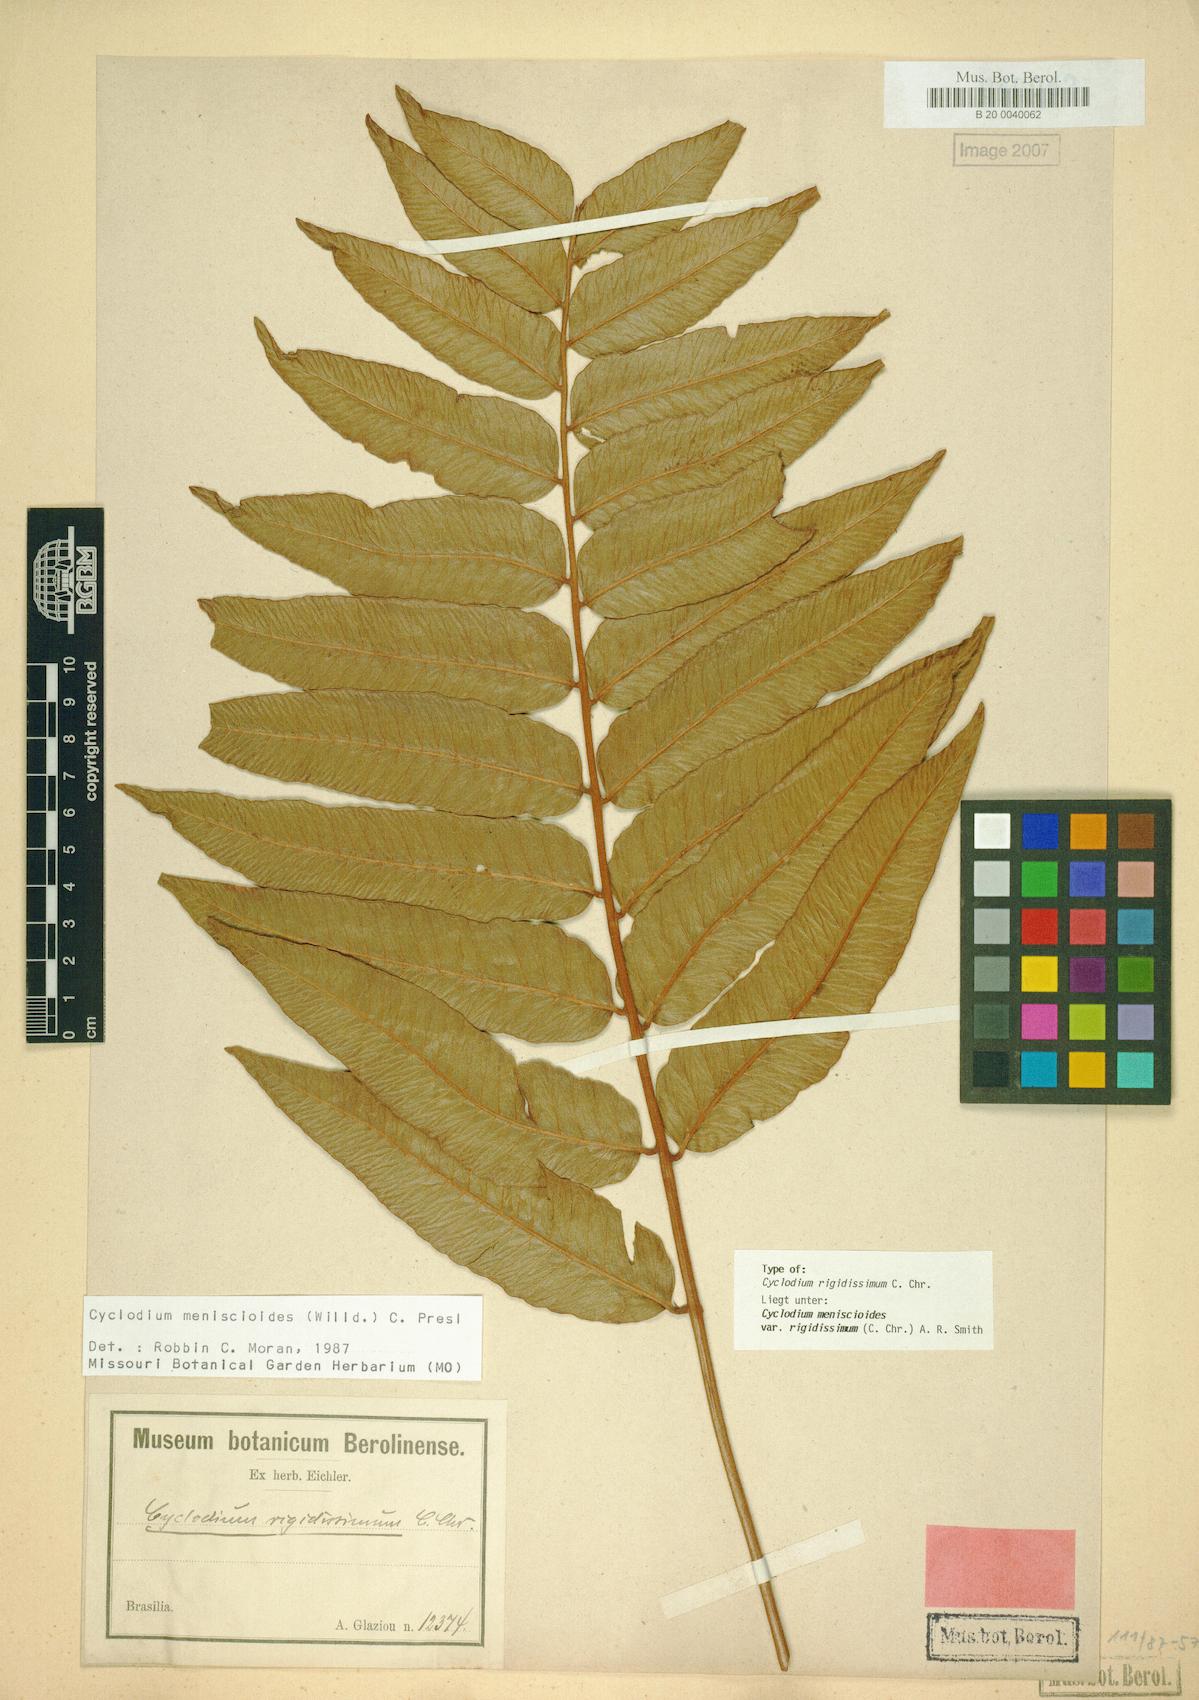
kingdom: Plantae
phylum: Tracheophyta
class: Polypodiopsida
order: Polypodiales
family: Dryopteridaceae
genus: Cyclodium
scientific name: Cyclodium meniscioides
